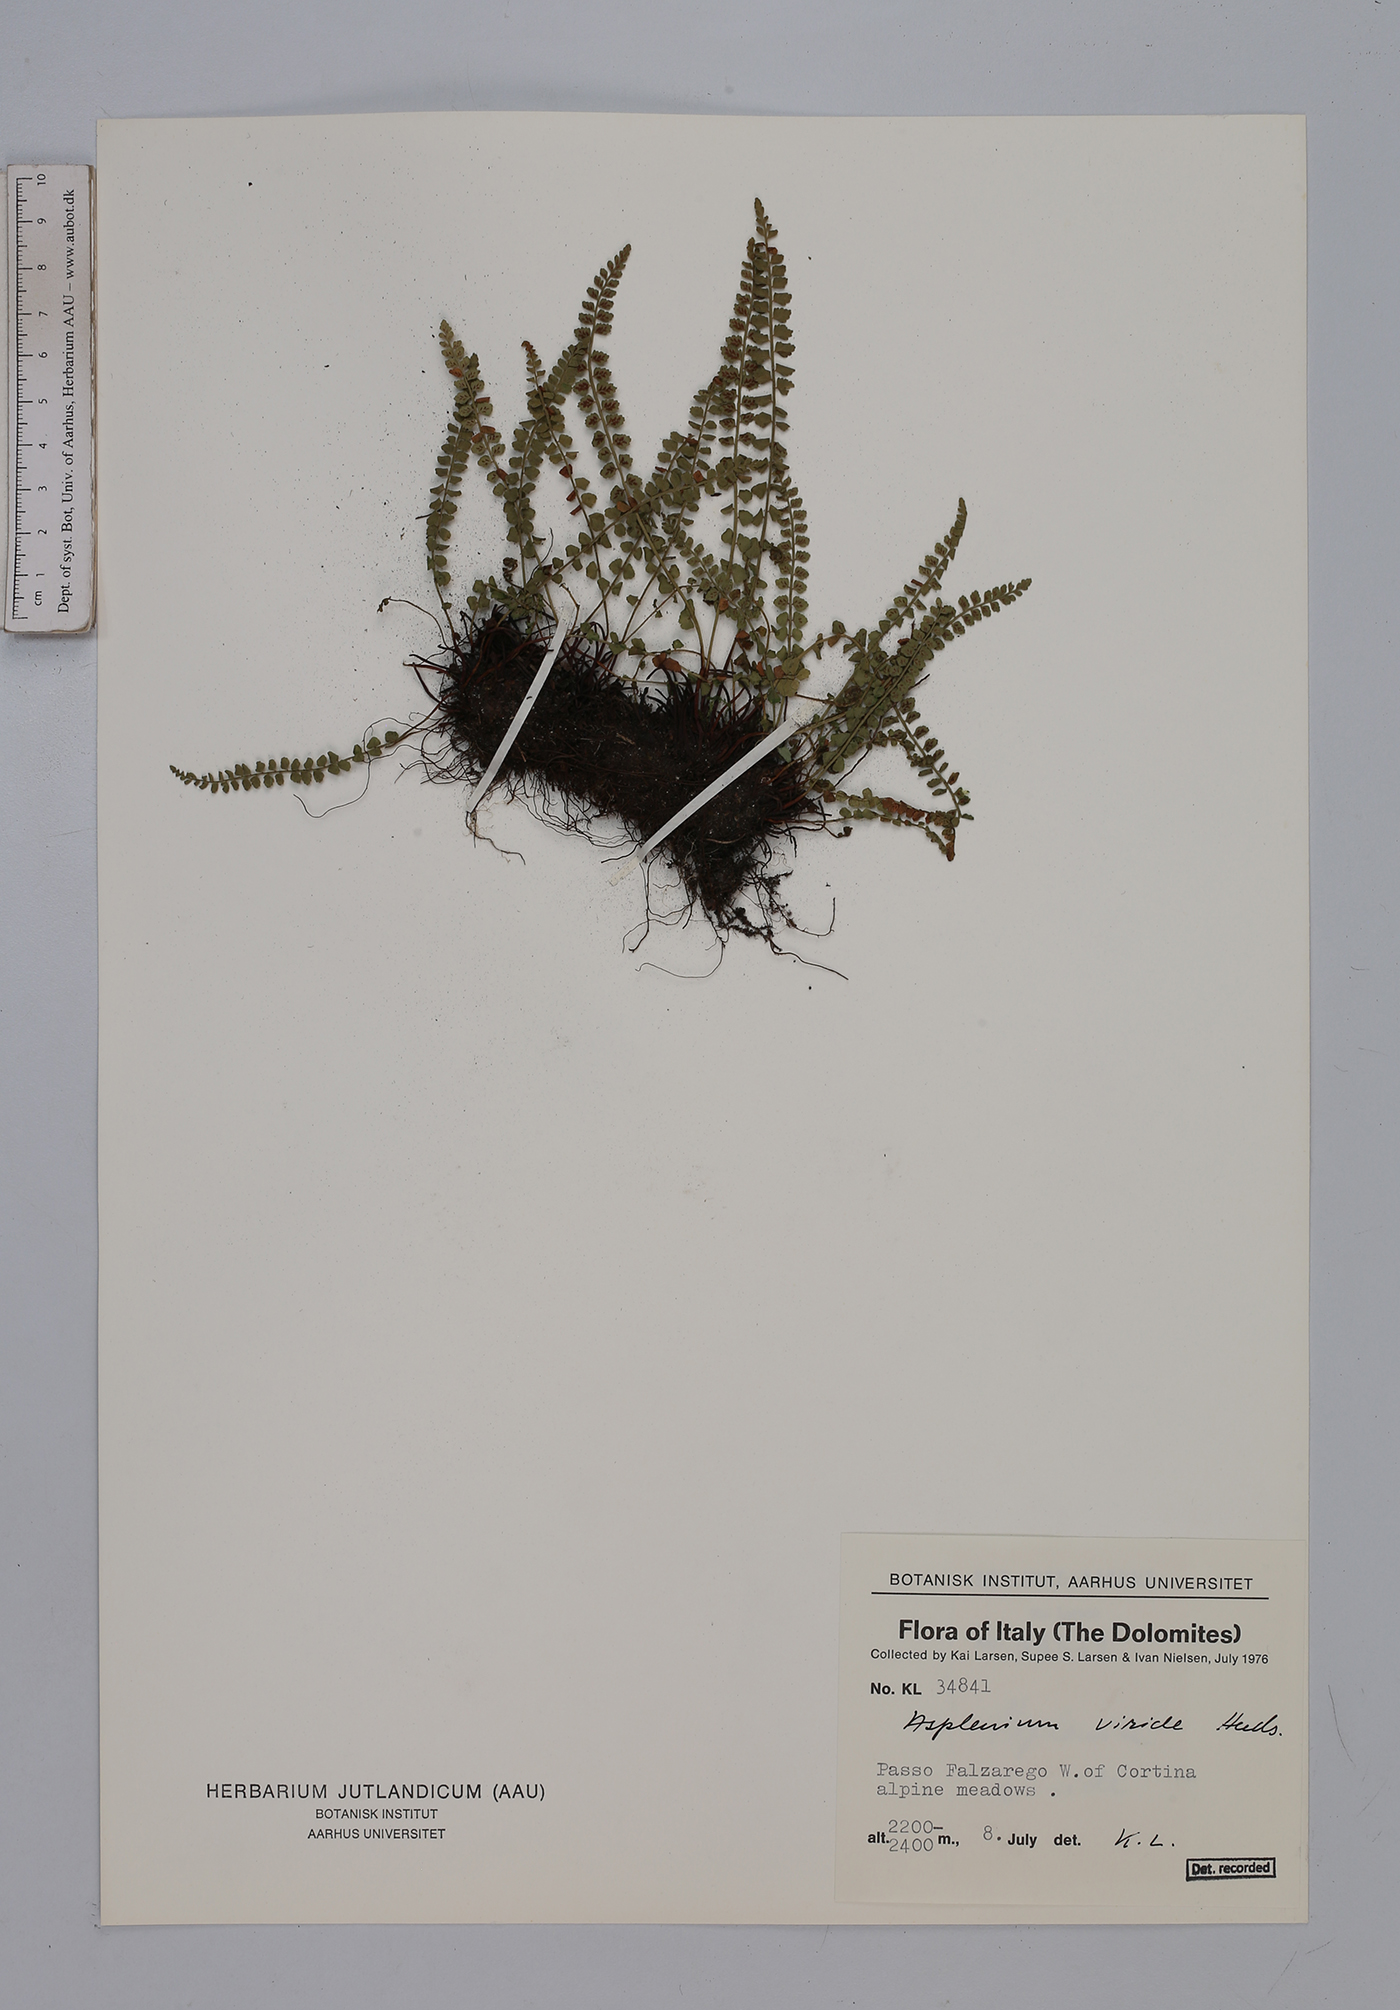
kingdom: Plantae
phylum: Tracheophyta
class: Polypodiopsida
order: Polypodiales
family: Aspleniaceae
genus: Asplenium
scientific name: Asplenium viride
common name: Green spleenwort
